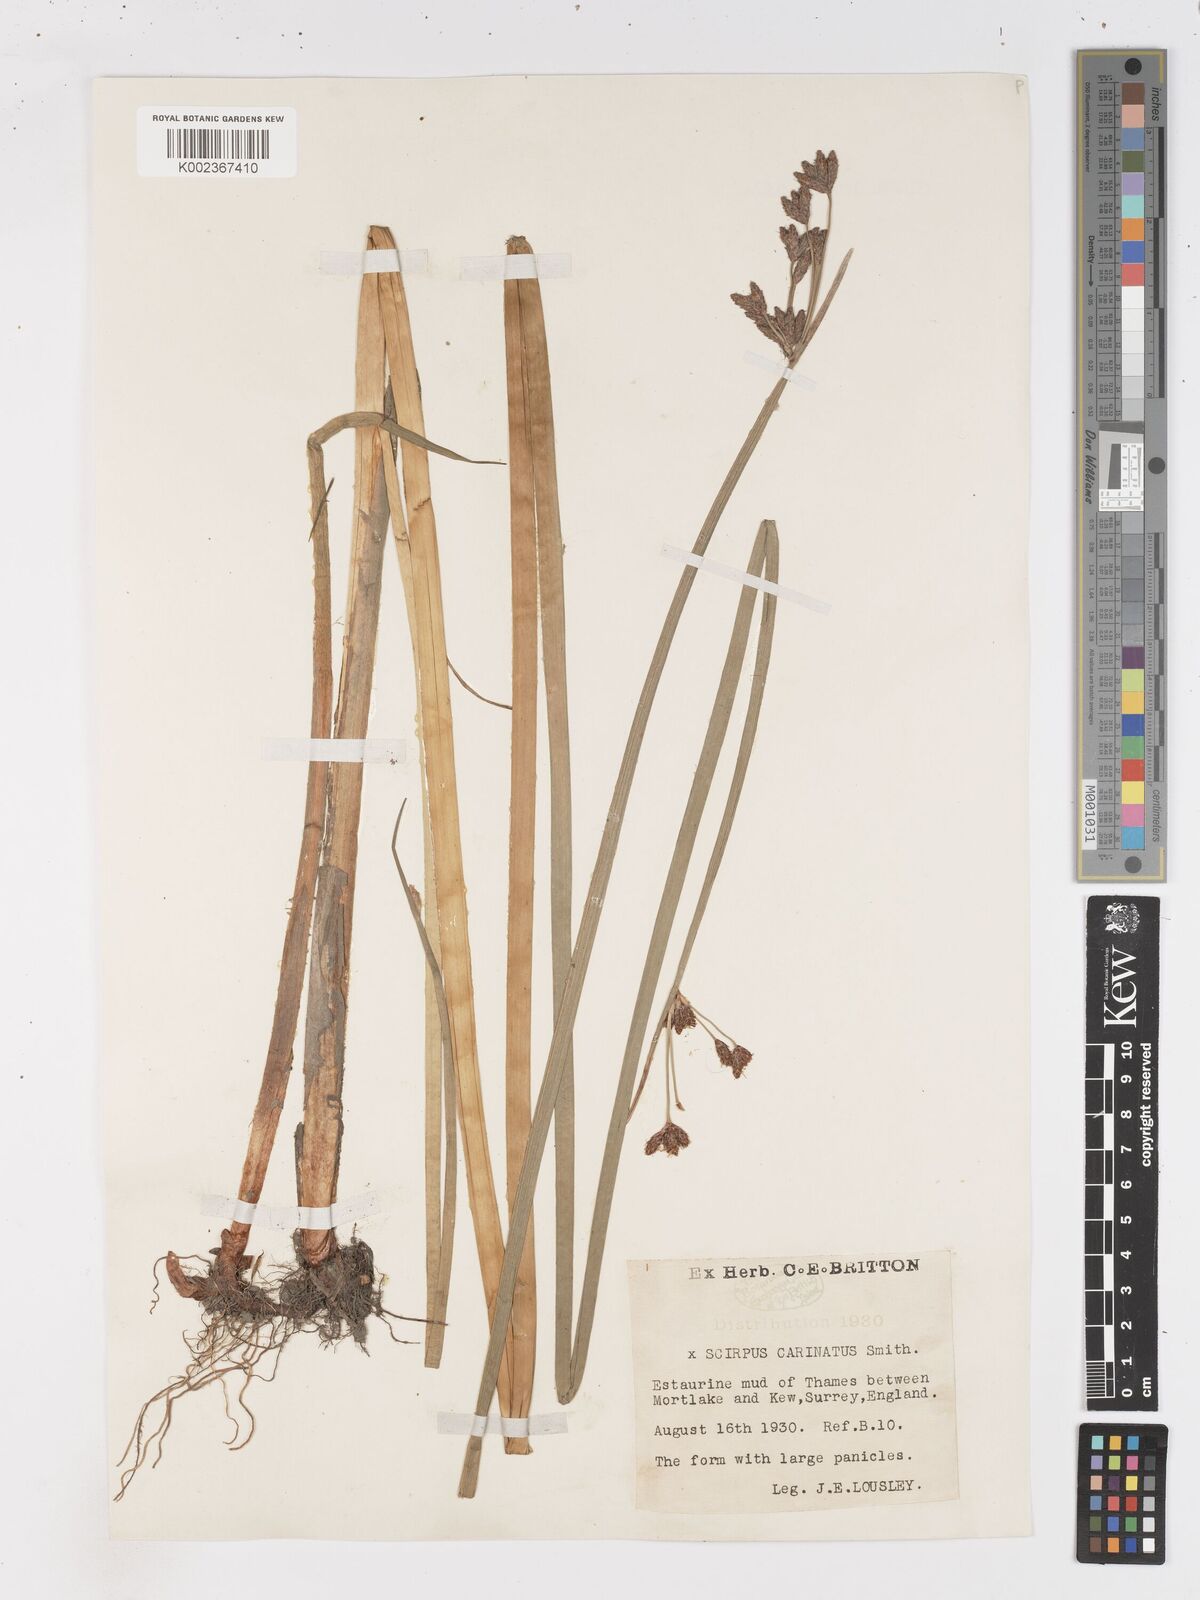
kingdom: Plantae
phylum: Tracheophyta
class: Liliopsida
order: Poales
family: Cyperaceae
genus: Isolepis
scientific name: Isolepis carinata
